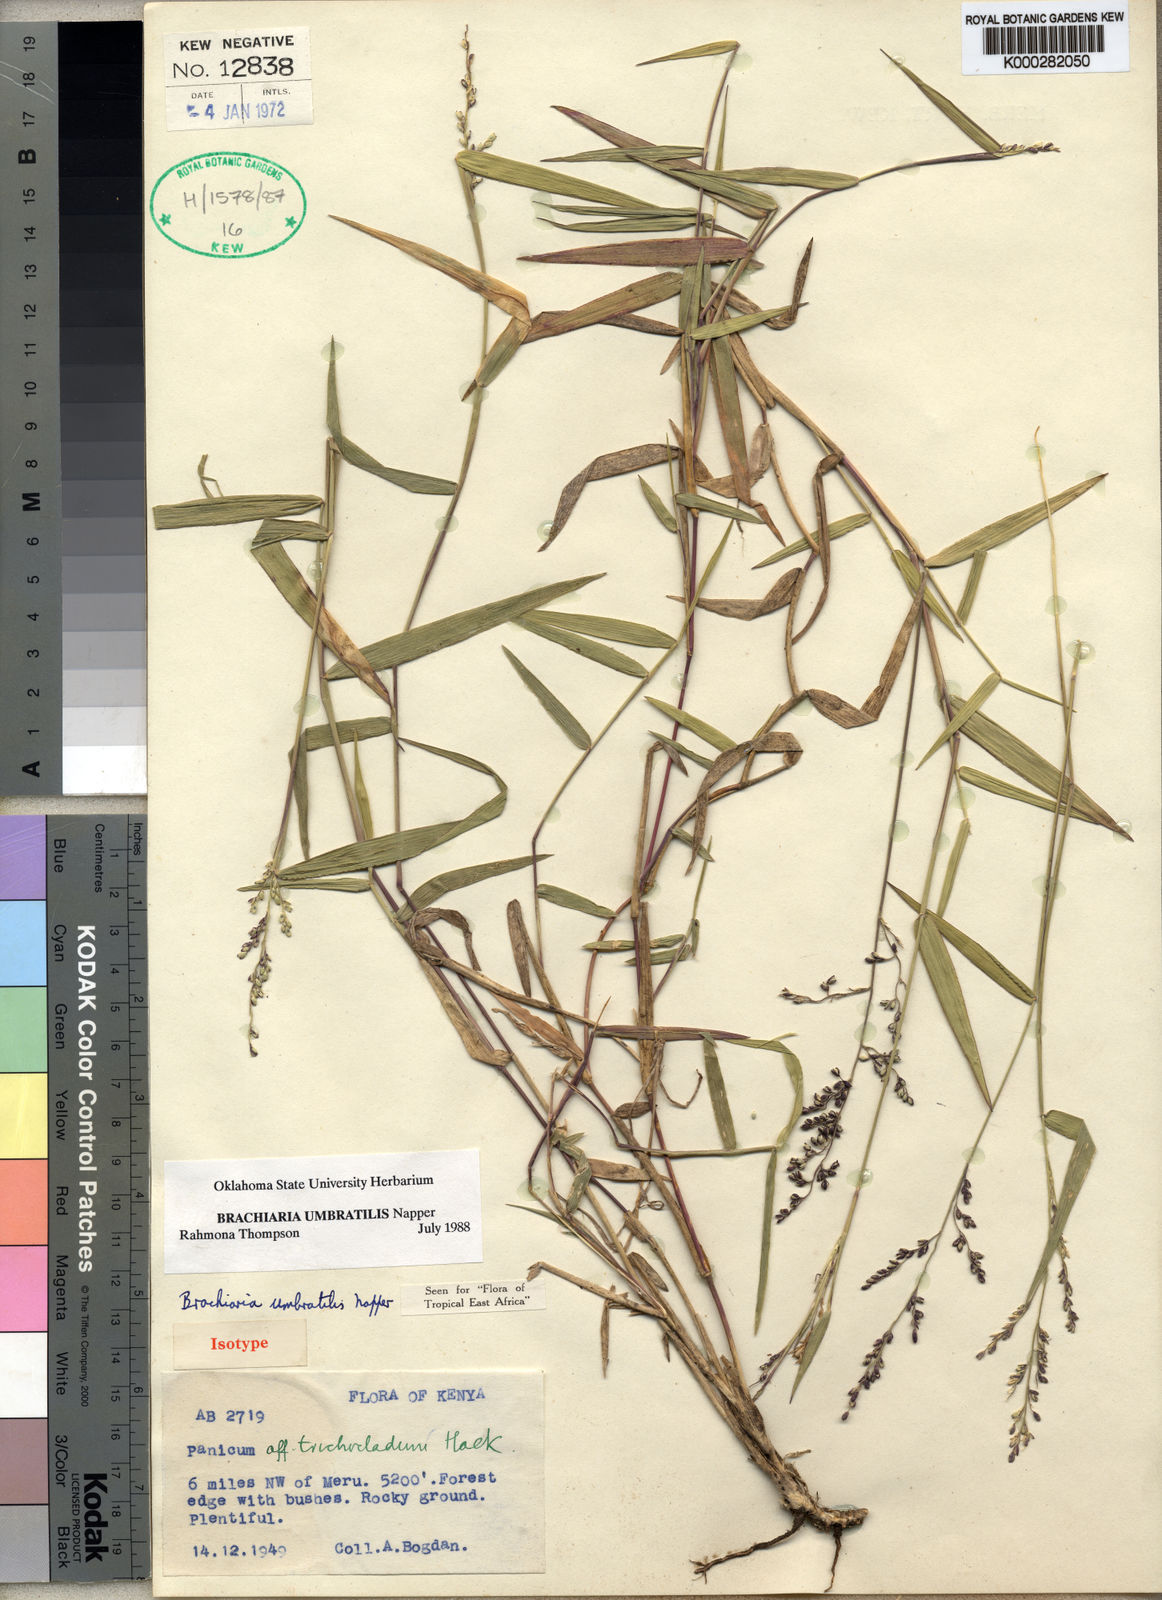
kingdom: Plantae
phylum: Tracheophyta
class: Liliopsida
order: Poales
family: Poaceae
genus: Urochloa
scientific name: Urochloa Brachiaria umbratilis
